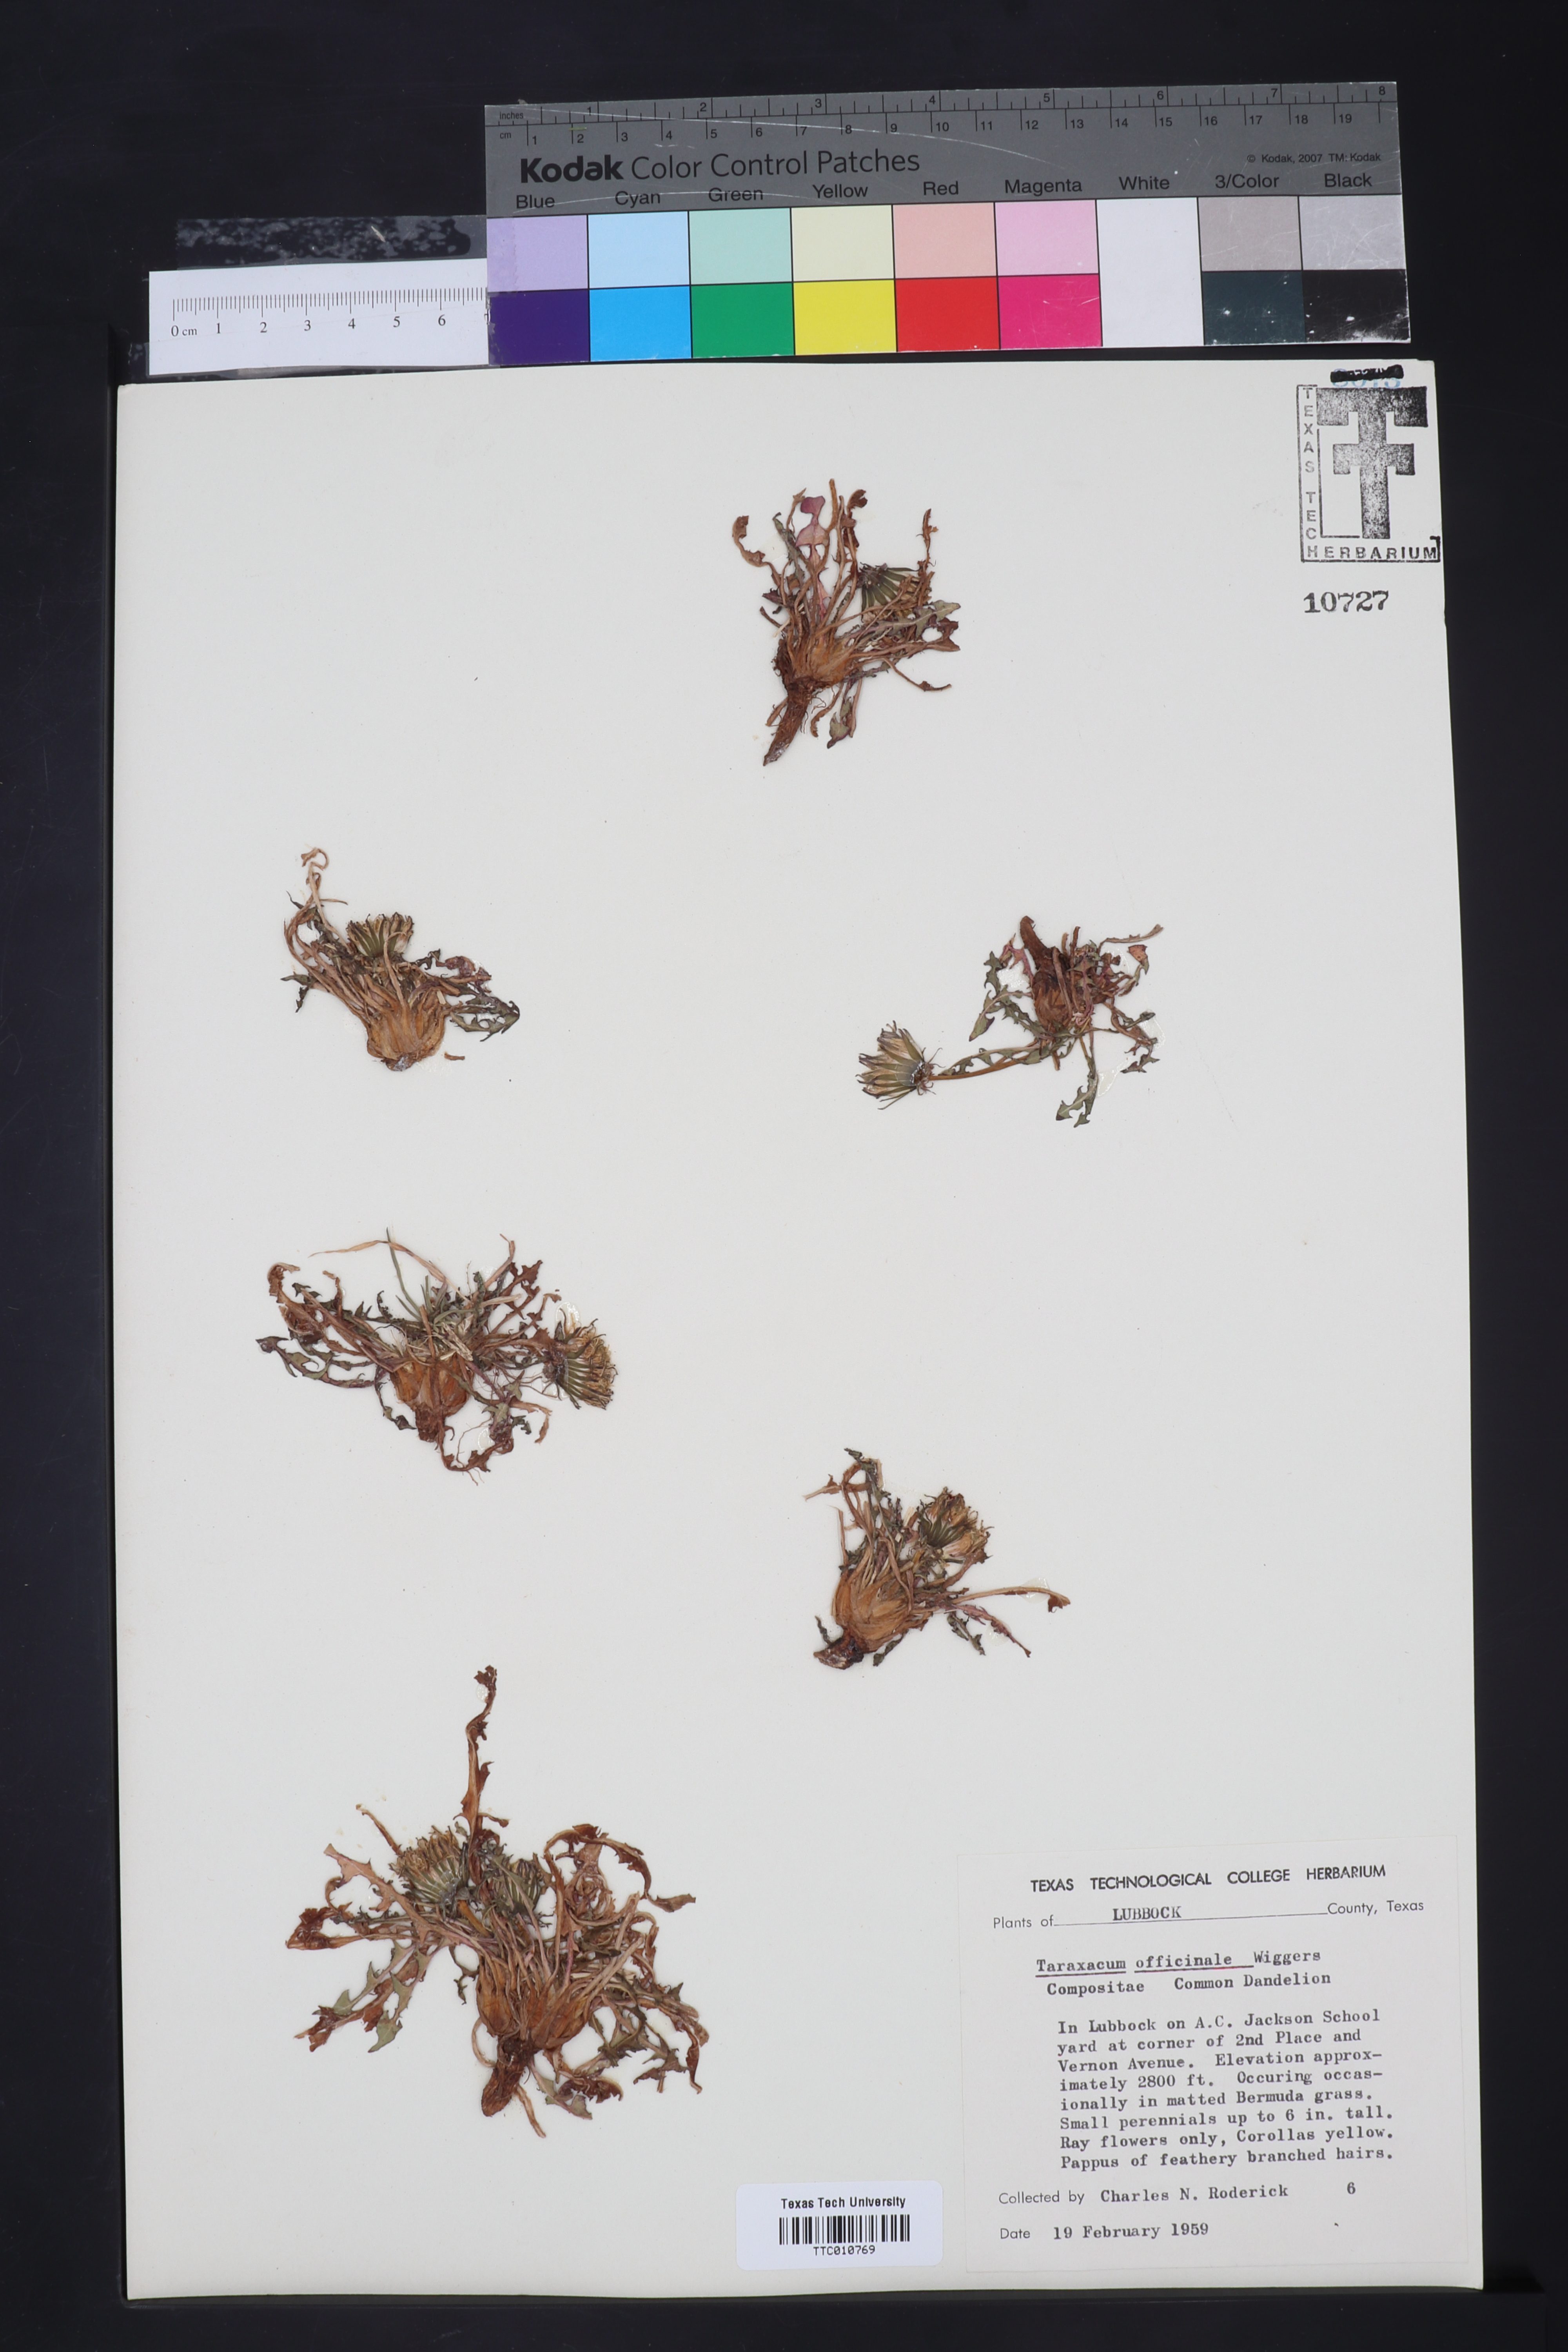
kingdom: Plantae
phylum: Tracheophyta
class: Magnoliopsida
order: Asterales
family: Asteraceae
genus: Taraxacum
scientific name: Taraxacum officinale
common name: Common dandelion
